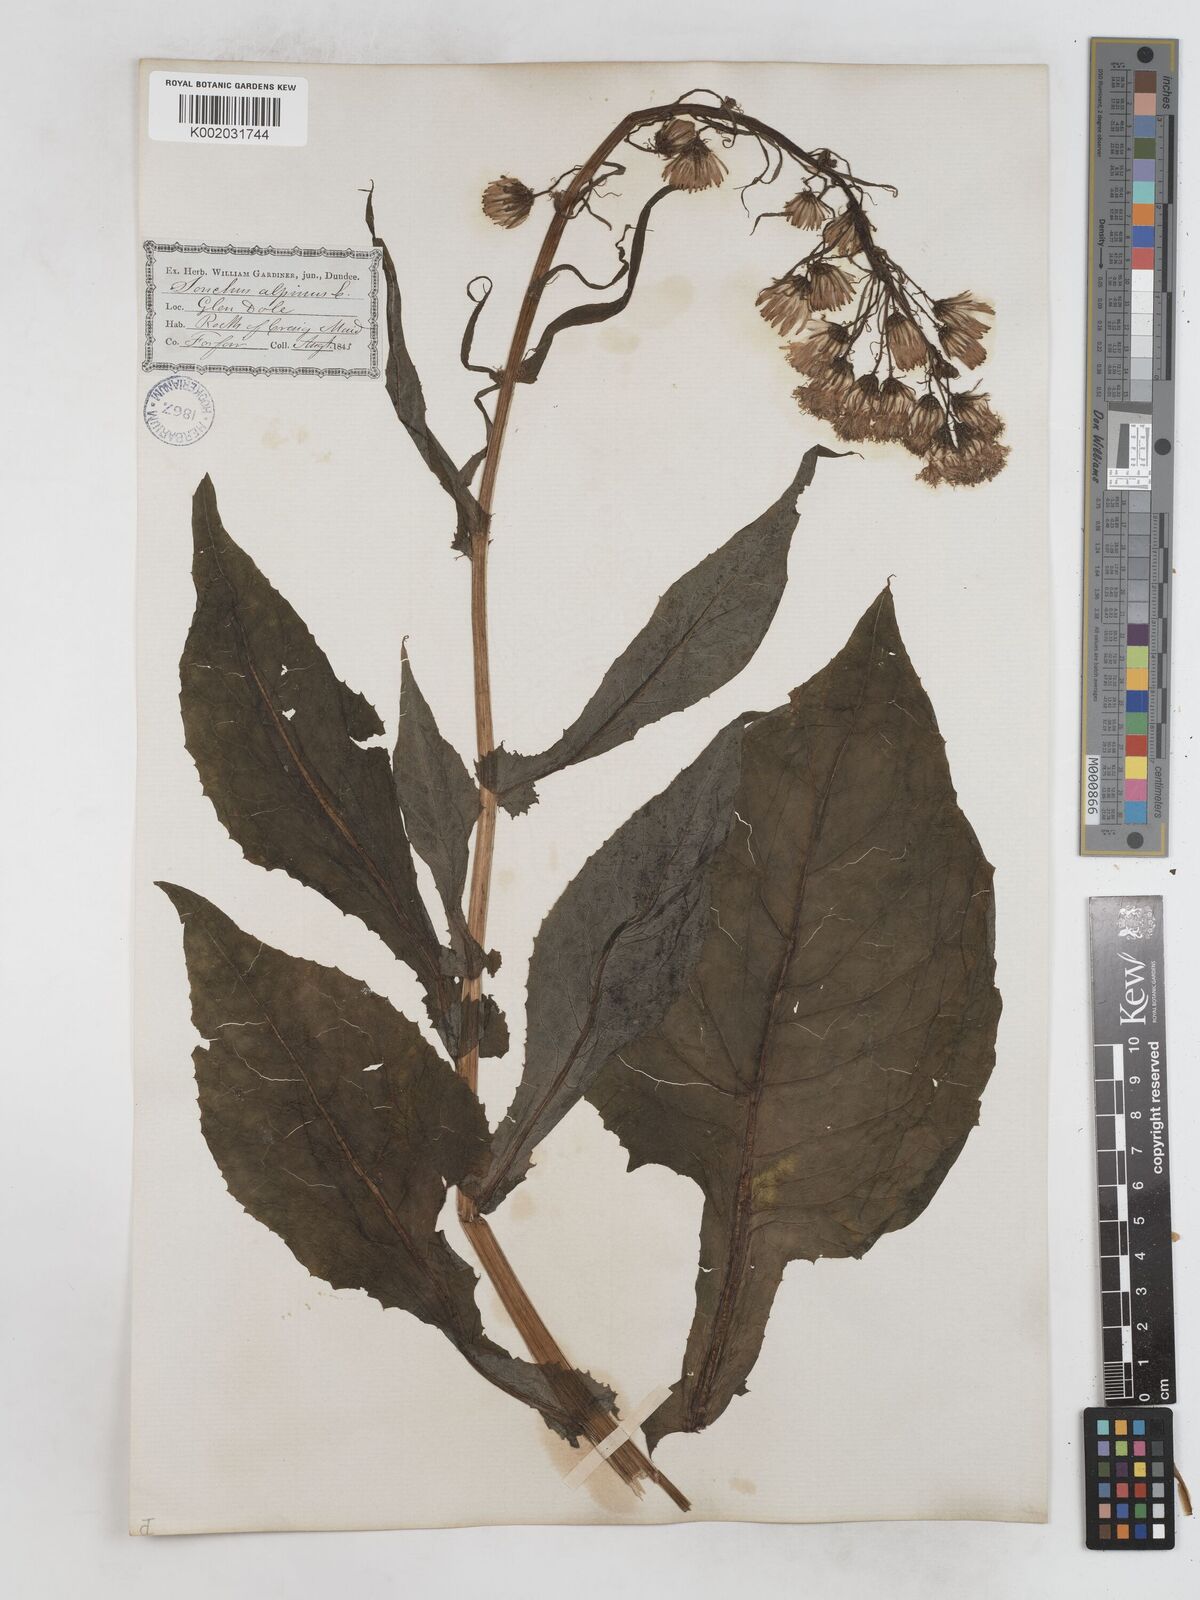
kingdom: Plantae
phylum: Tracheophyta
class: Magnoliopsida
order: Asterales
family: Asteraceae
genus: Cicerbita
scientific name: Cicerbita alpina
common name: Alpine blue-sow-thistle
